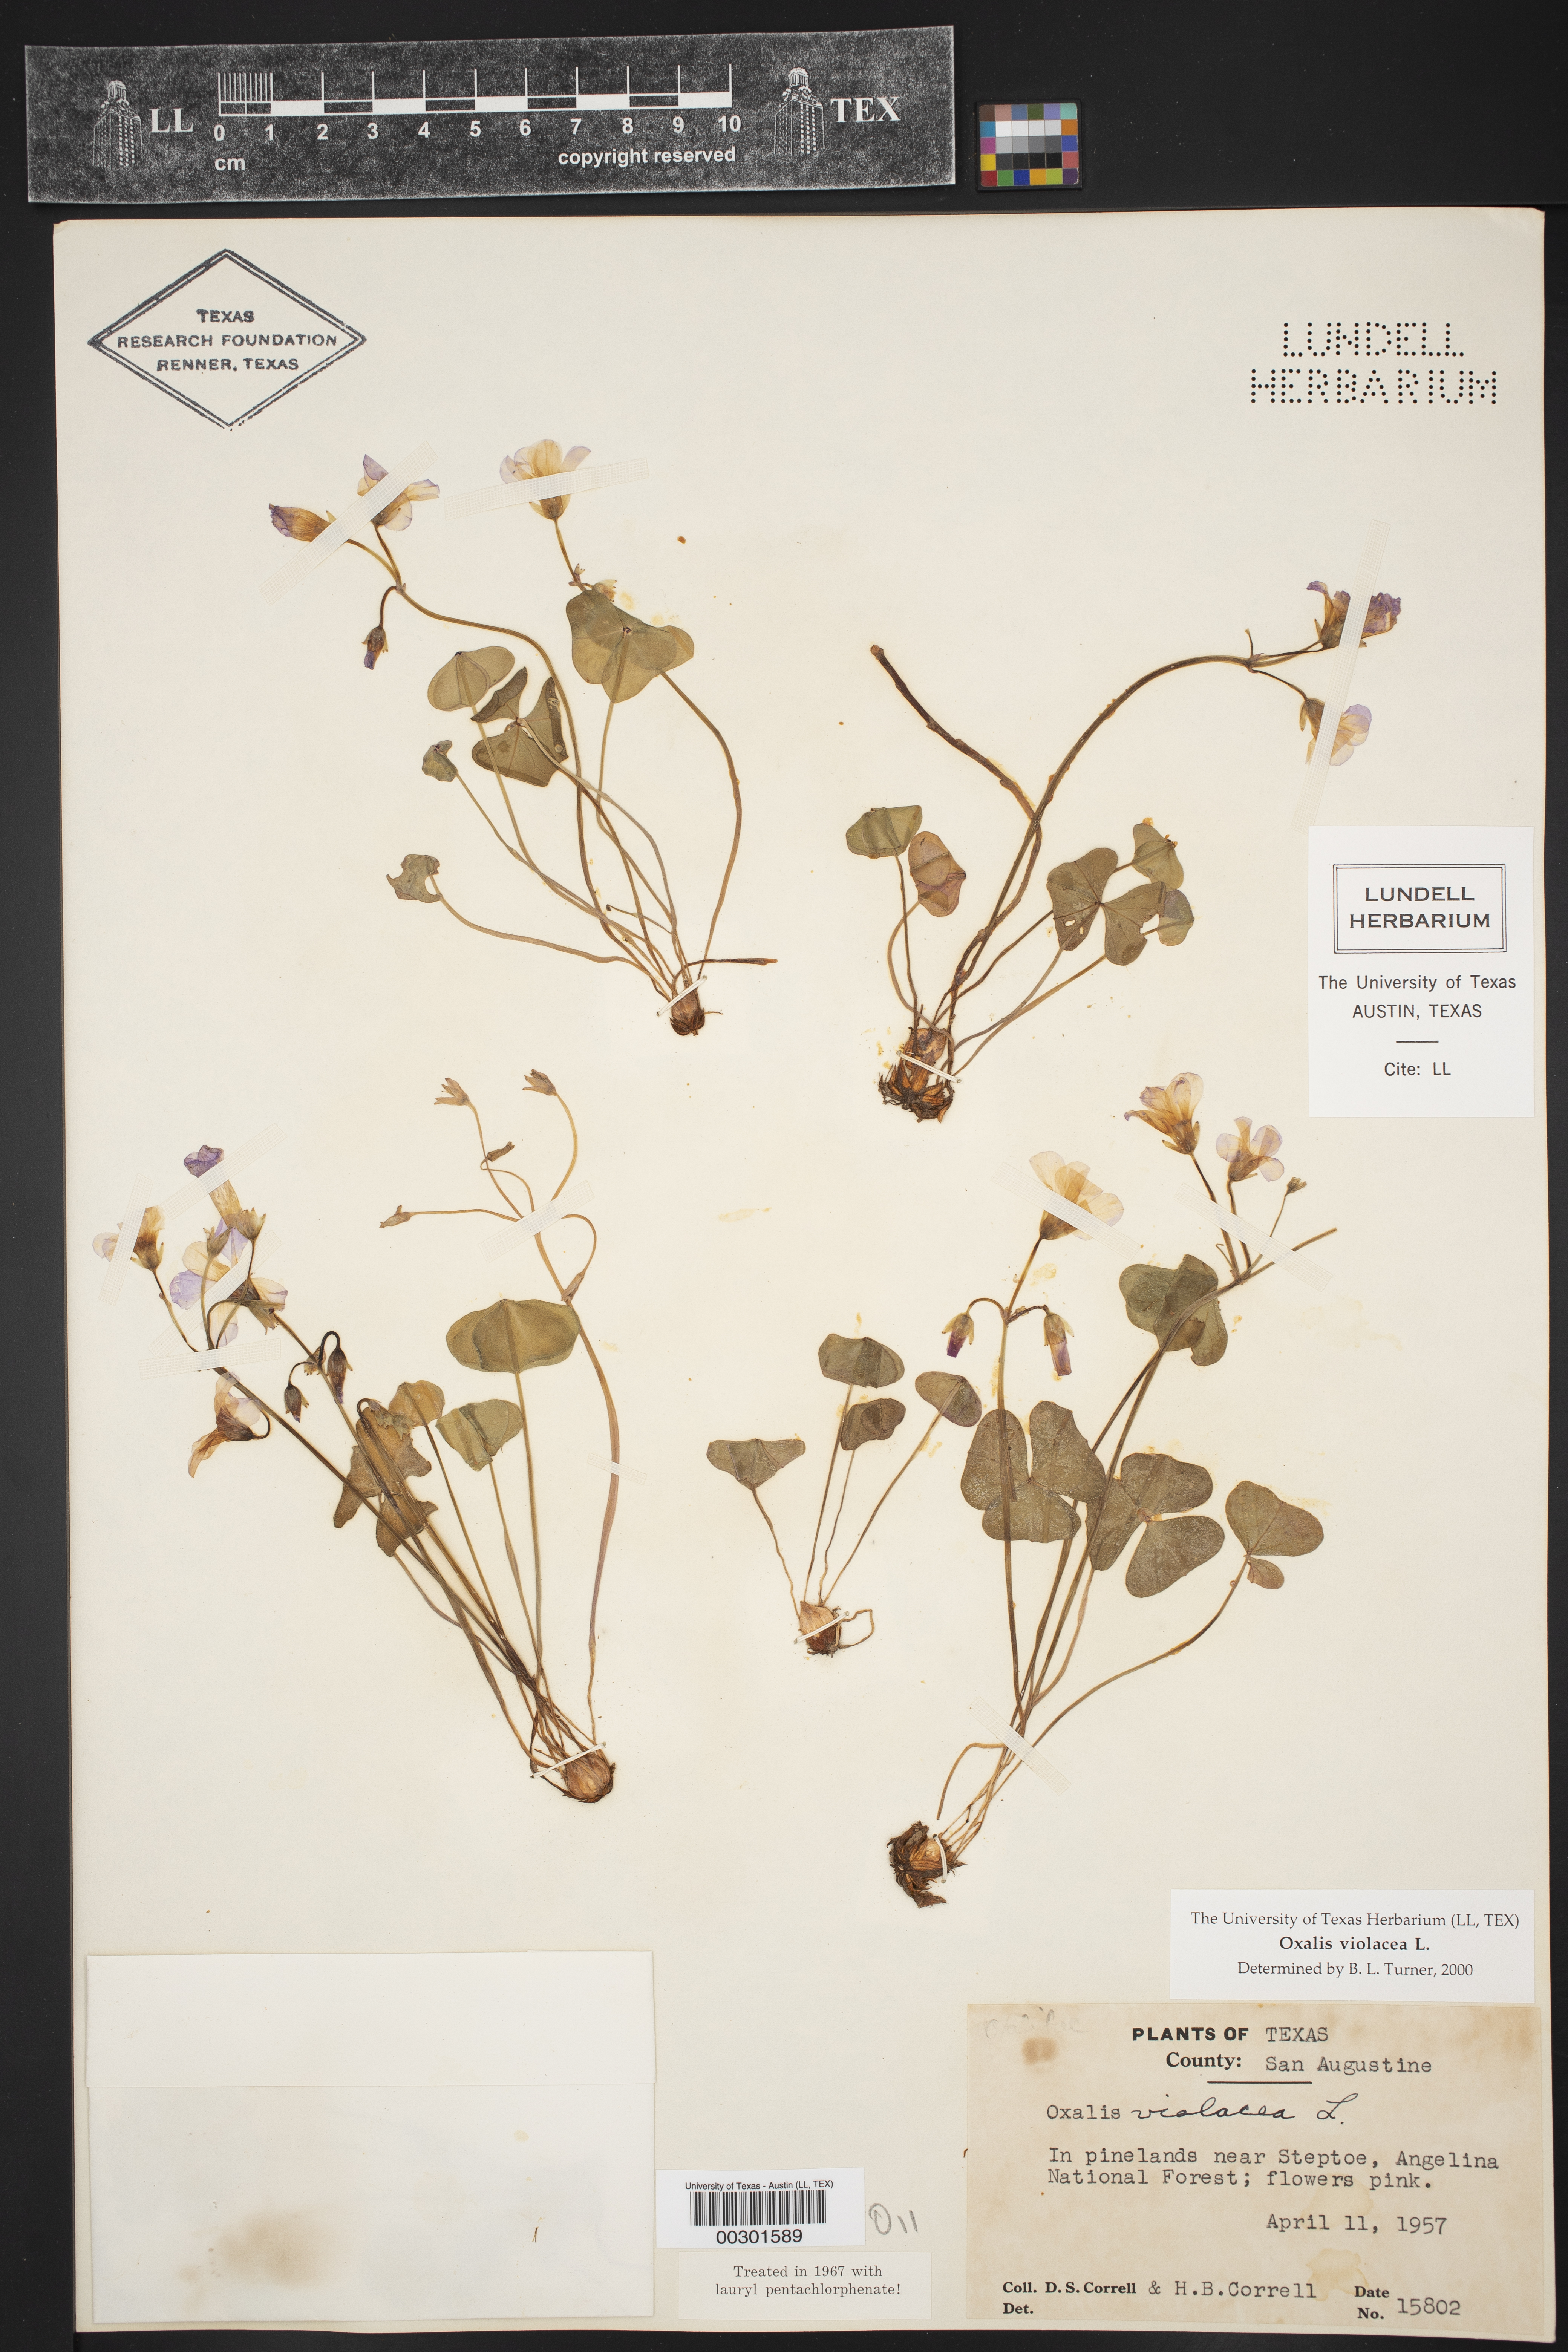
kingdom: Plantae
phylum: Tracheophyta
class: Magnoliopsida
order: Oxalidales
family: Oxalidaceae
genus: Oxalis
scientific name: Oxalis violacea
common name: Violet wood-sorrel
